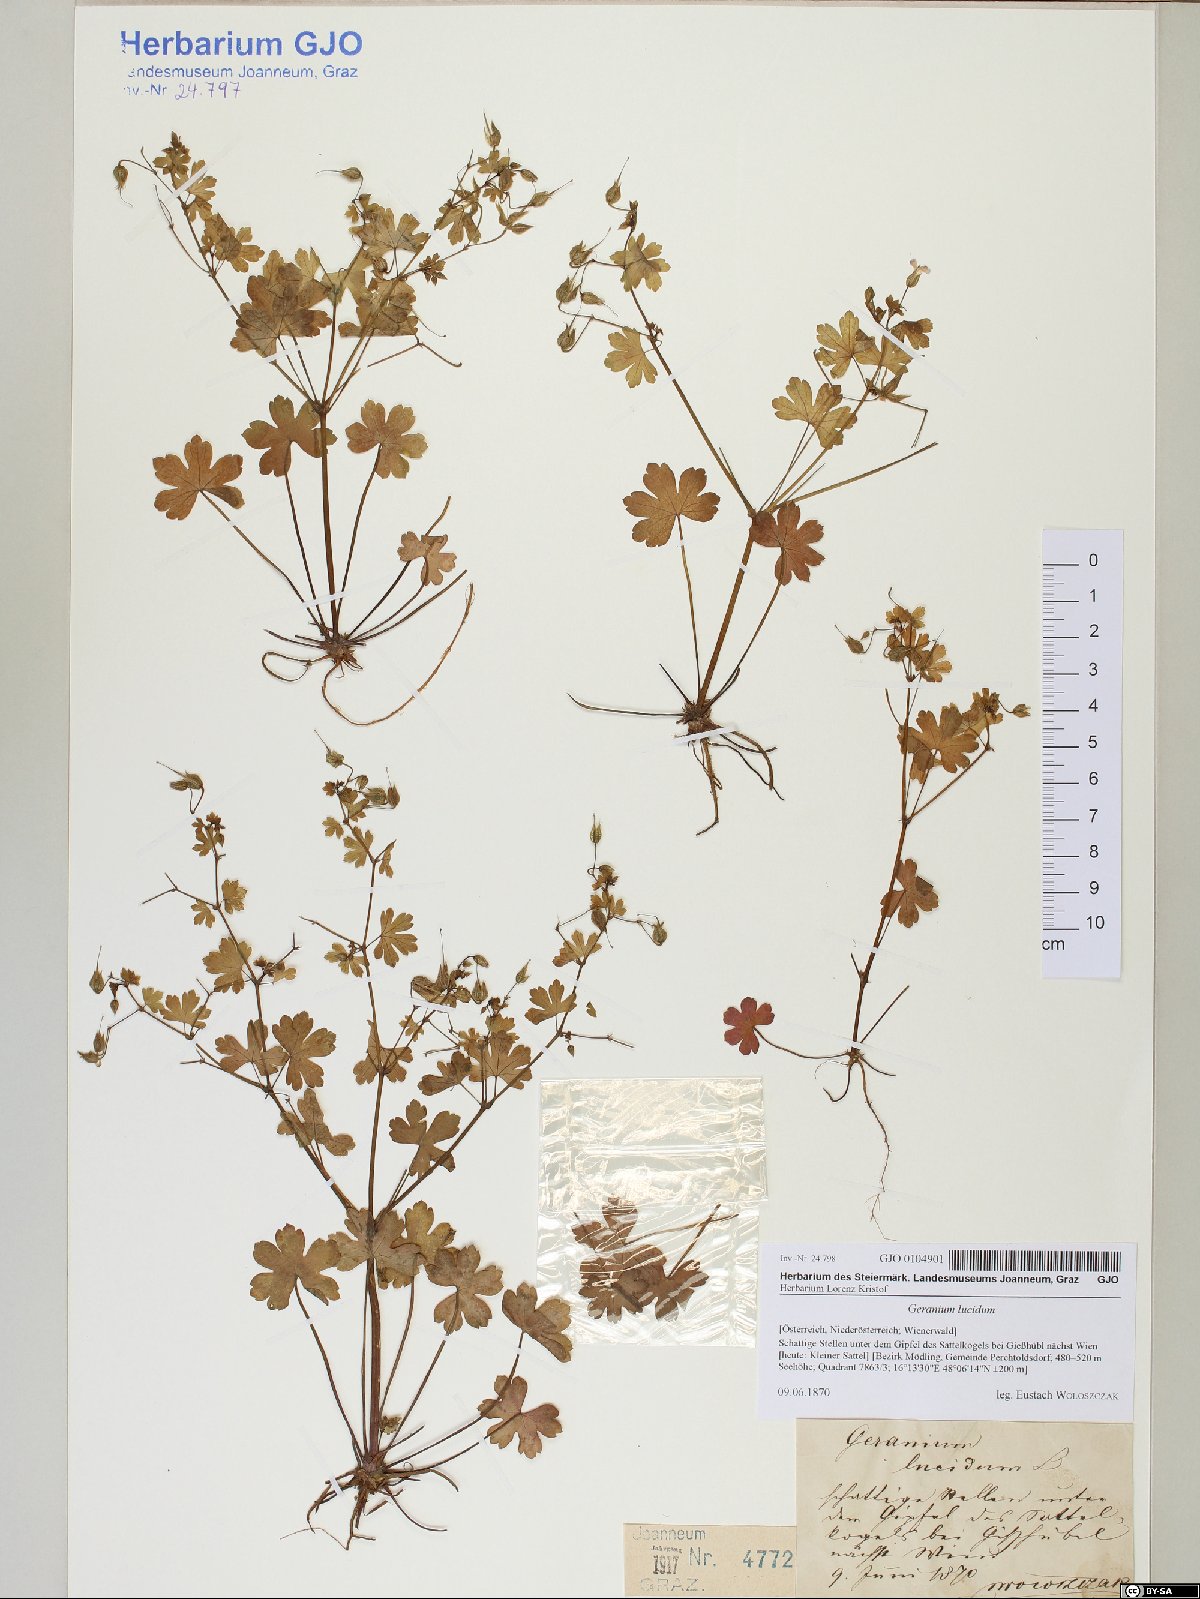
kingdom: Plantae
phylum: Tracheophyta
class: Magnoliopsida
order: Geraniales
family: Geraniaceae
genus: Geranium
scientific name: Geranium lucidum
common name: Shining crane's-bill
